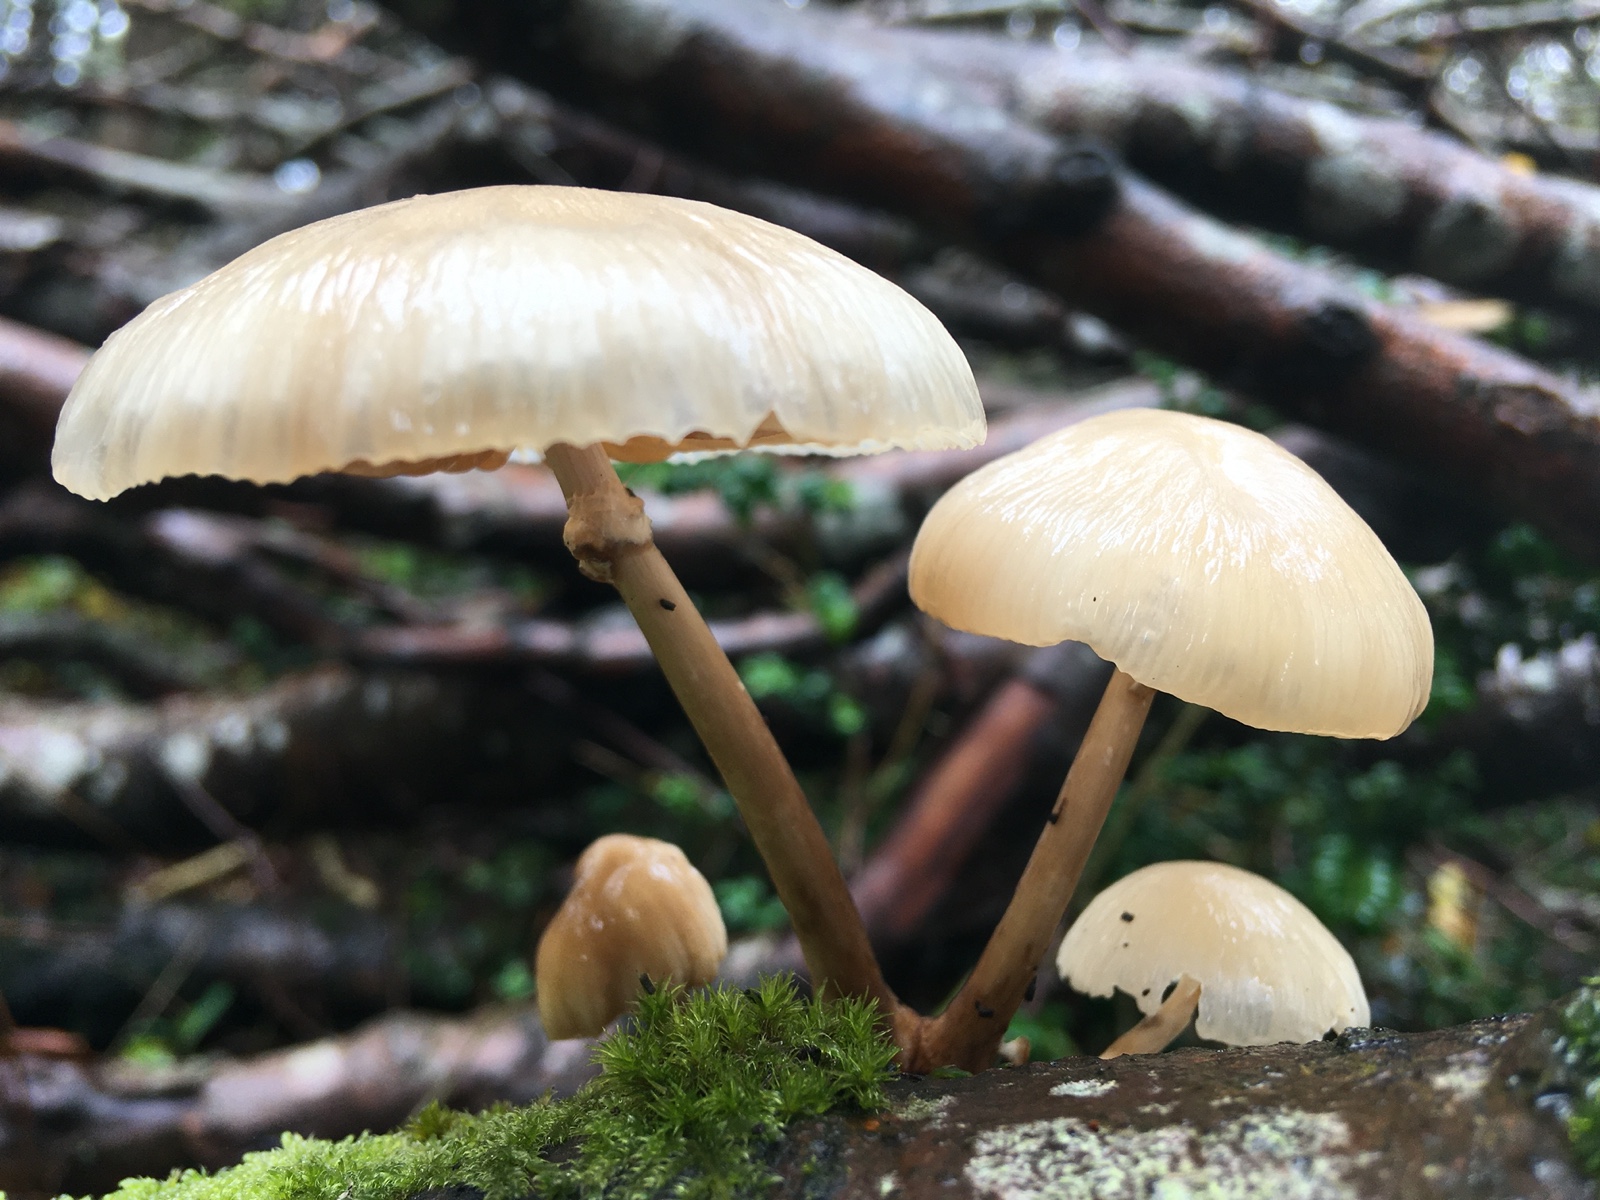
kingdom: Fungi
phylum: Basidiomycota
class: Agaricomycetes
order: Agaricales
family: Physalacriaceae
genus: Mucidula
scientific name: Mucidula mucida
